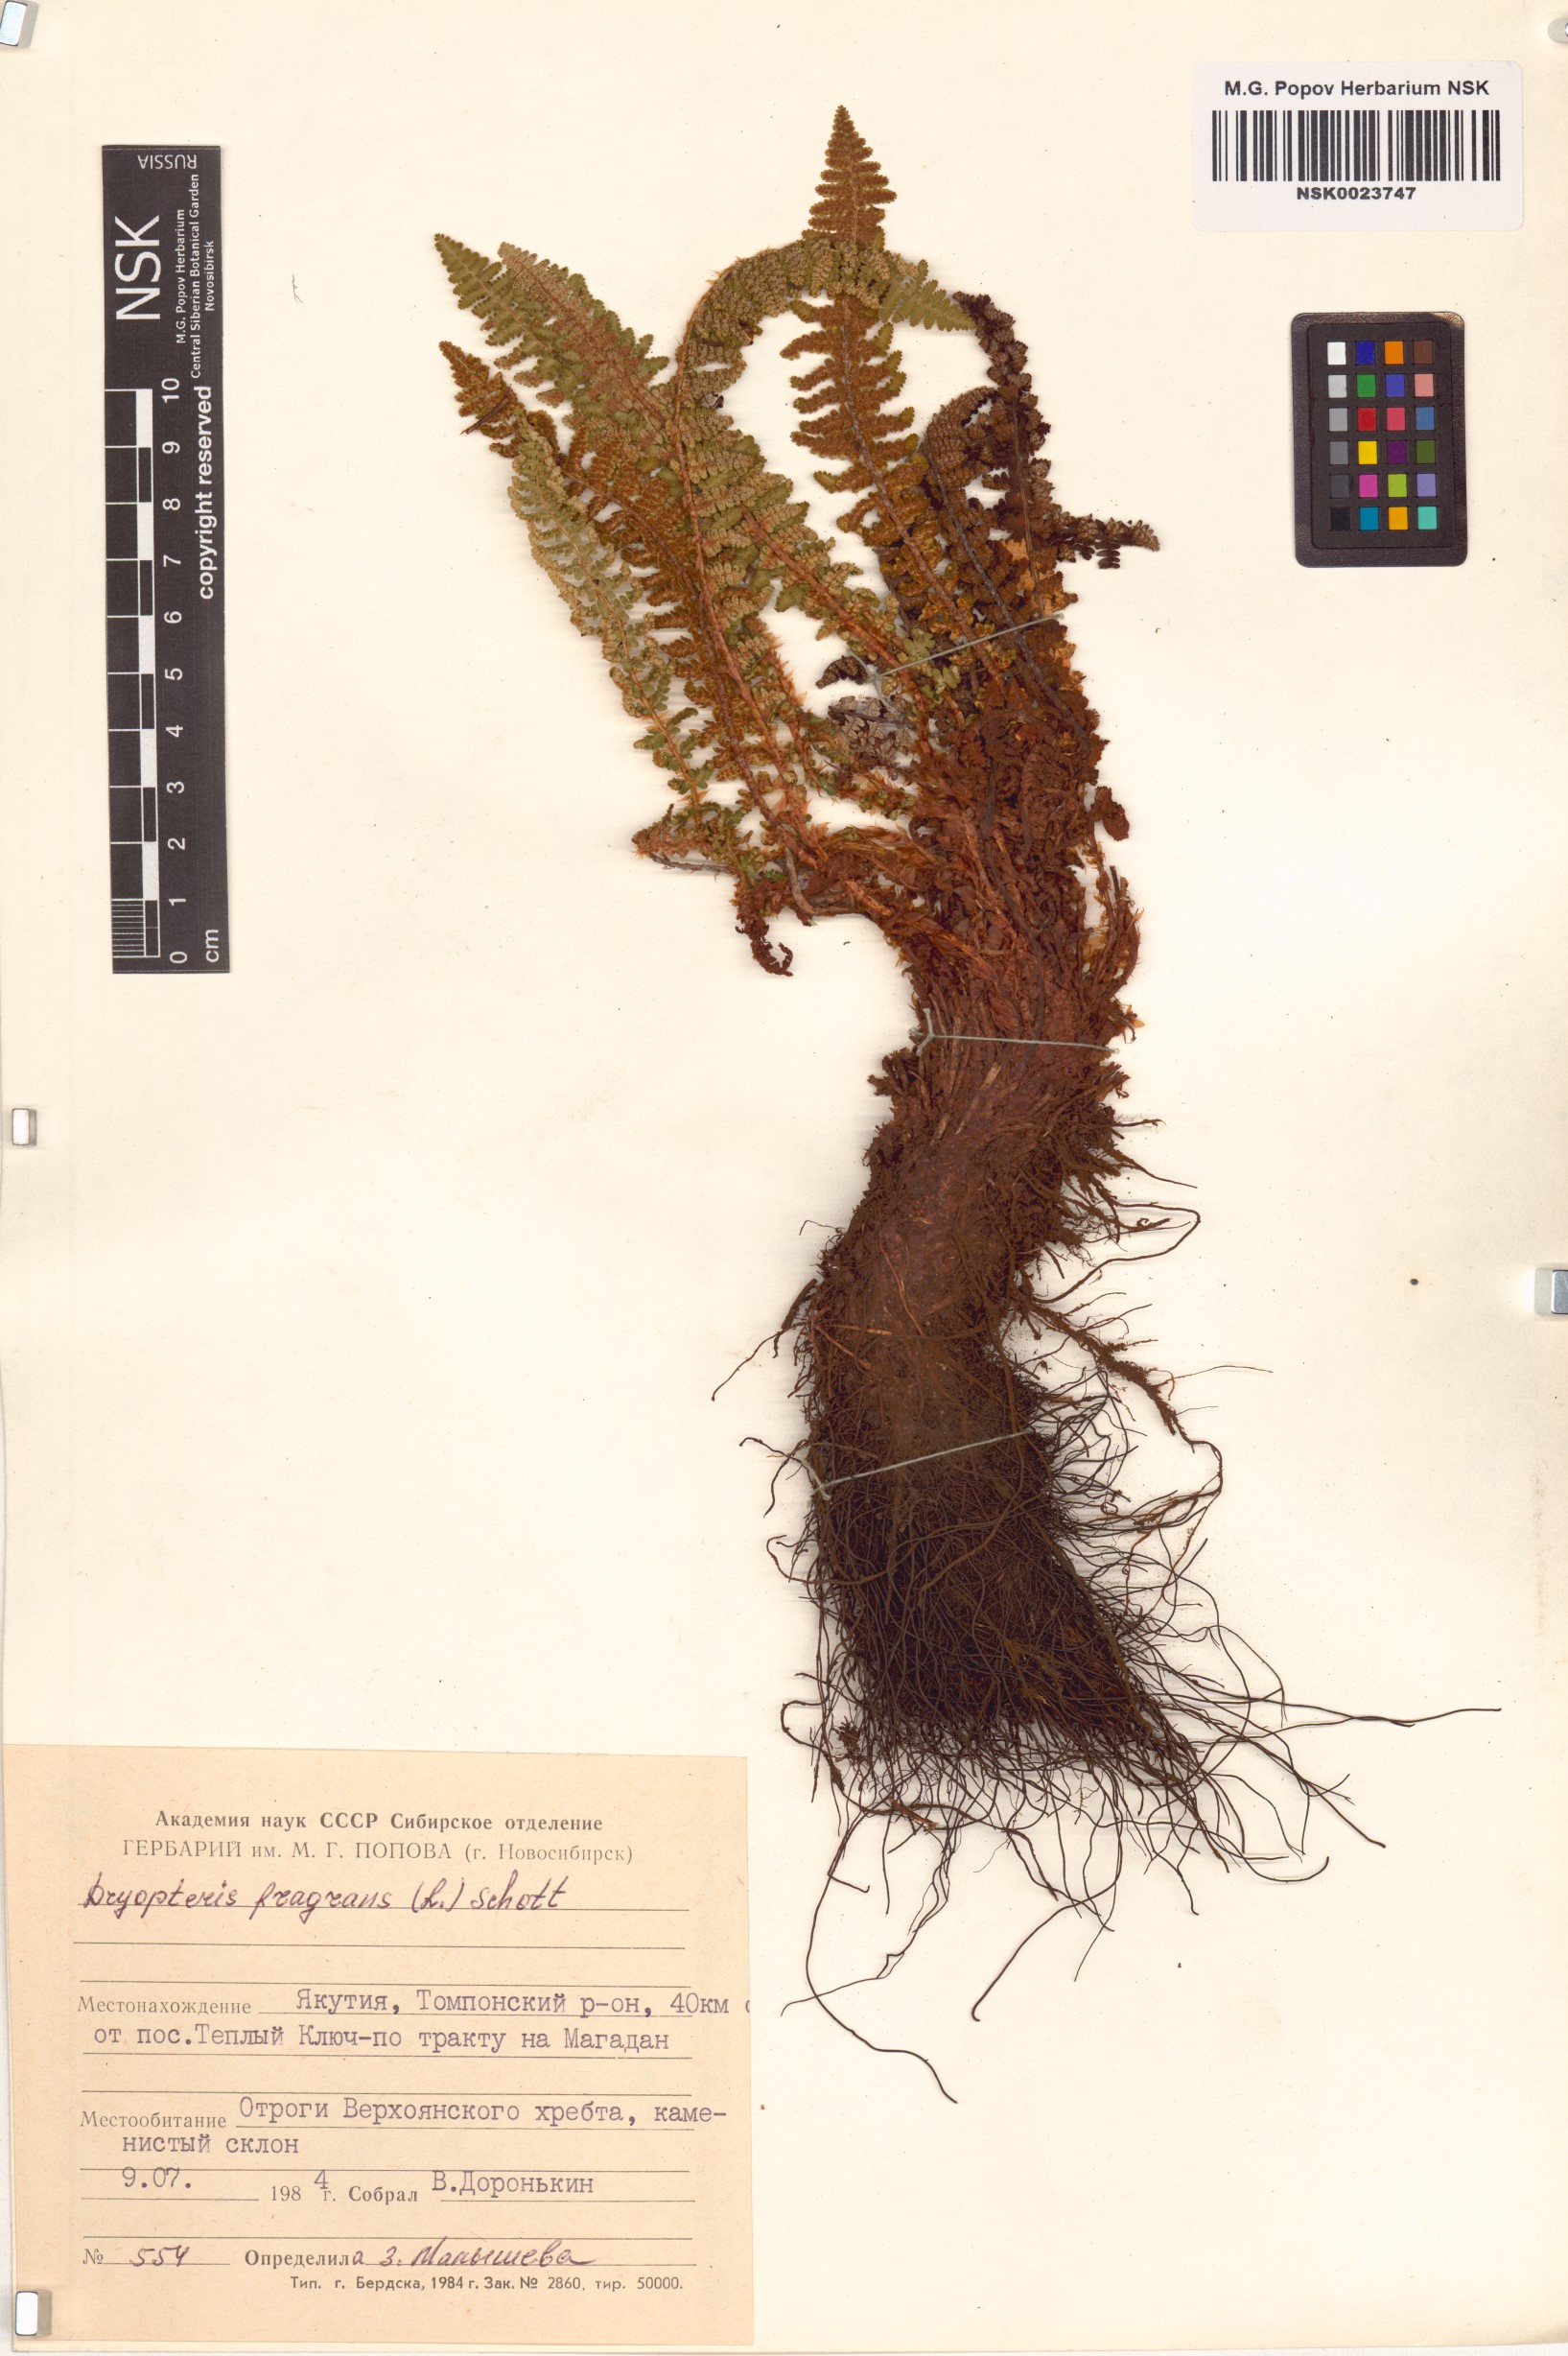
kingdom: Plantae
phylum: Tracheophyta
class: Polypodiopsida
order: Polypodiales
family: Dryopteridaceae
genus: Dryopteris
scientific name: Dryopteris fragrans
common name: Fragrant wood fern
